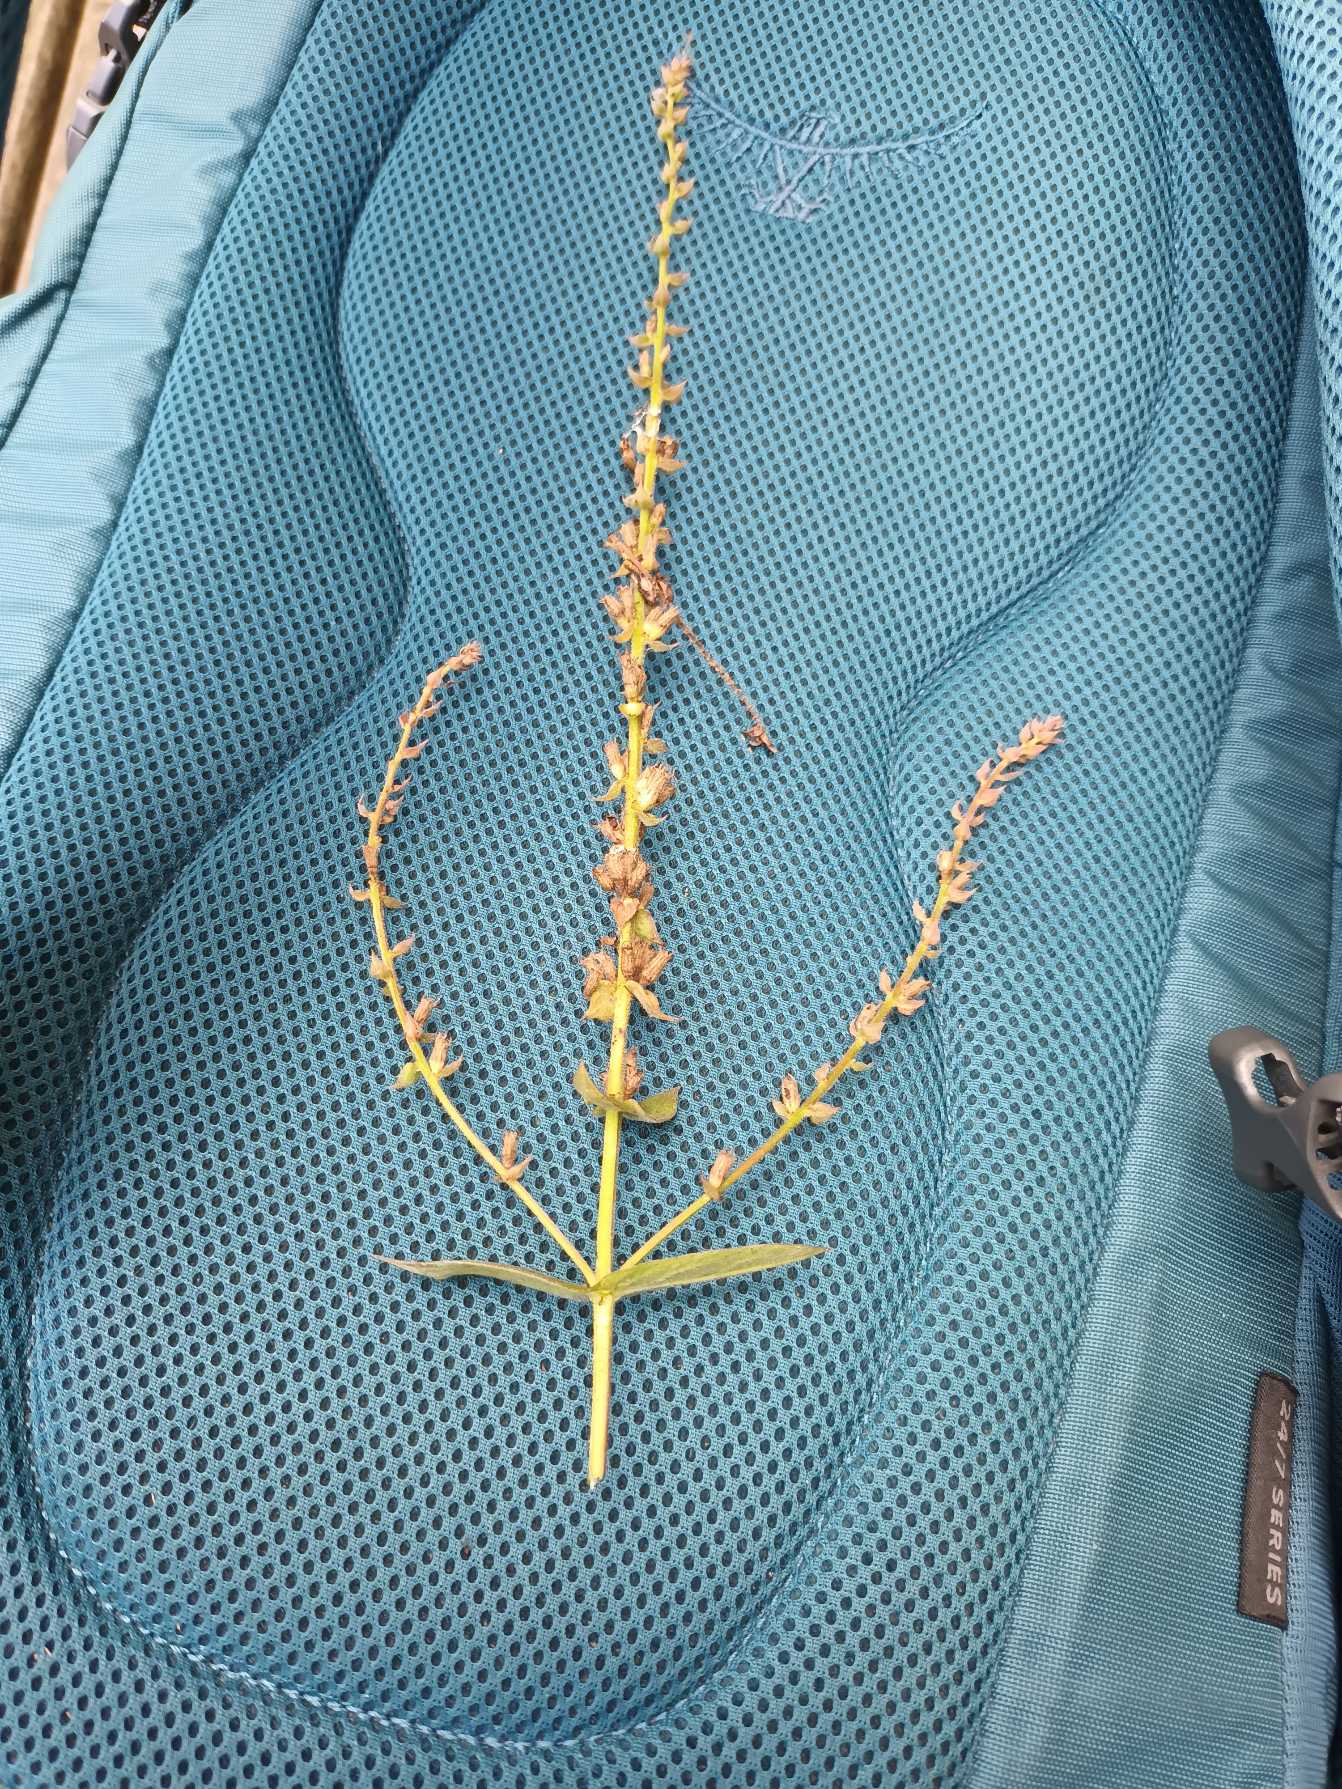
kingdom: Plantae
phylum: Tracheophyta
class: Magnoliopsida
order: Myrtales
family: Lythraceae
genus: Lythrum
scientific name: Lythrum salicaria
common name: Kattehale
